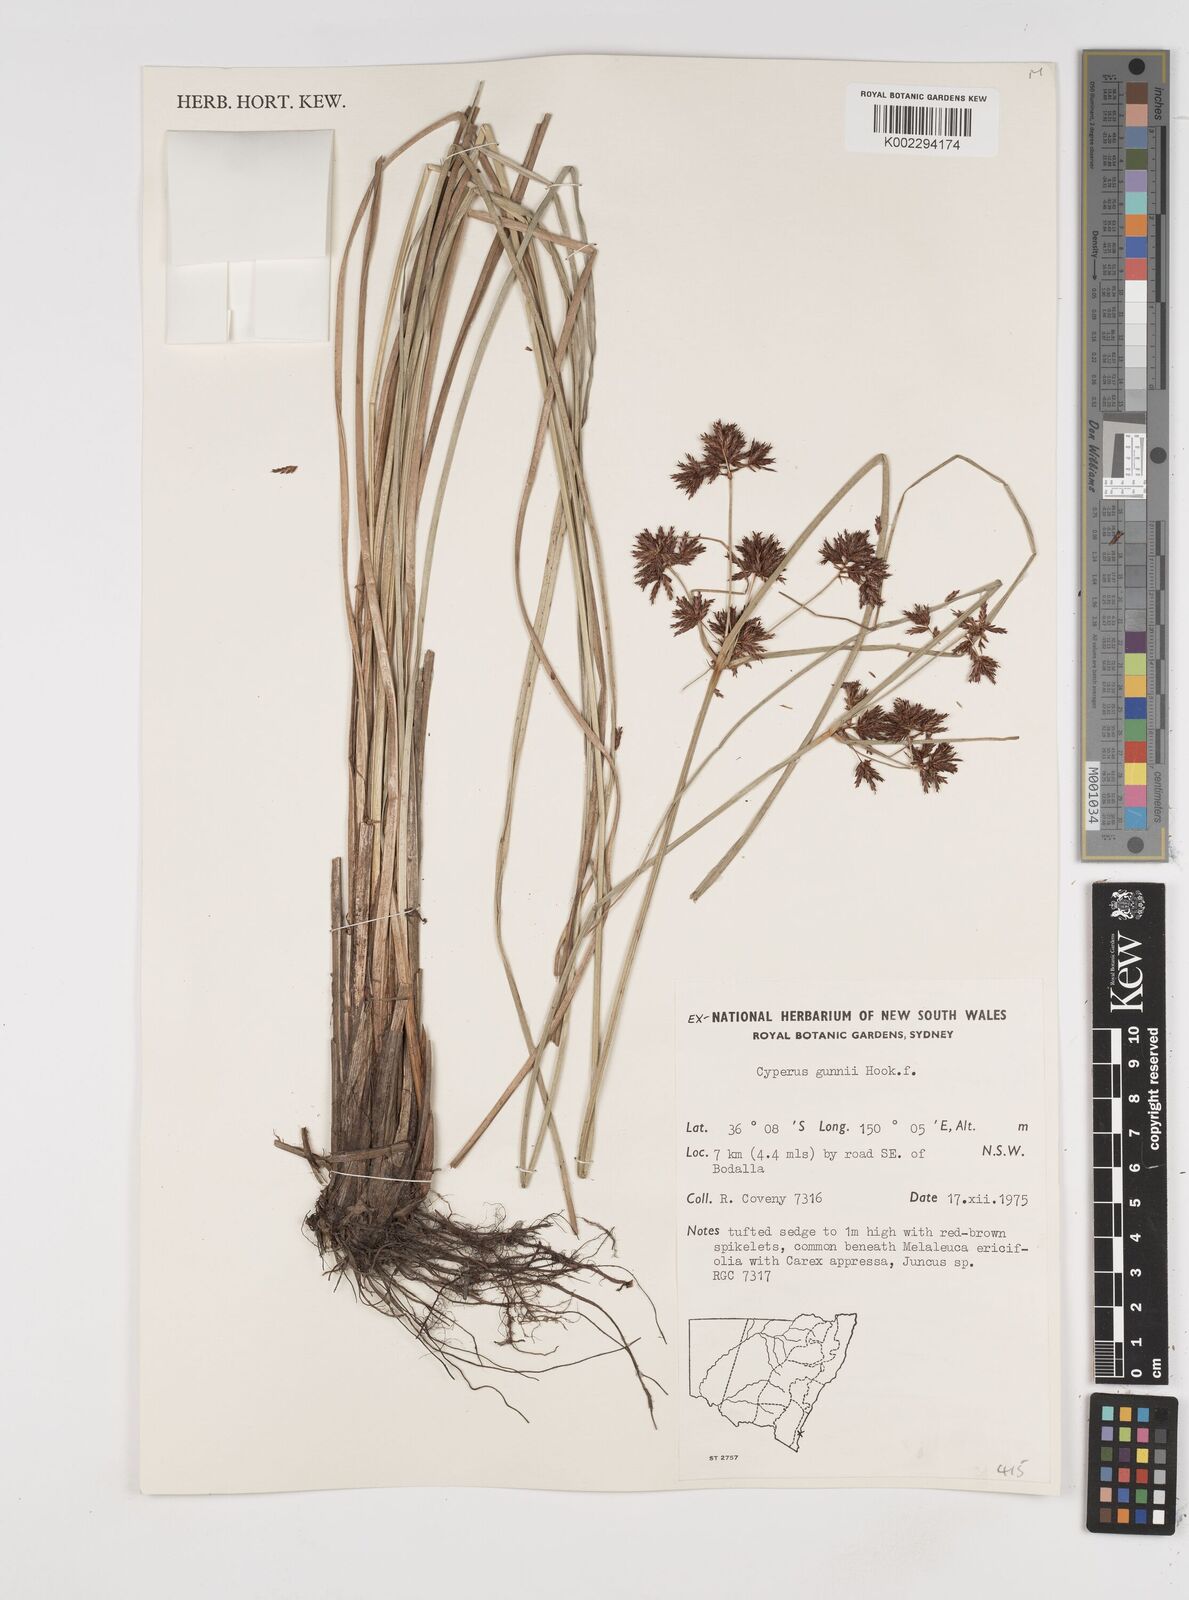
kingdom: Plantae
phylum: Tracheophyta
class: Liliopsida
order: Poales
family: Cyperaceae
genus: Cyperus
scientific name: Cyperus gunnii
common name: Flecked flat-sedge
